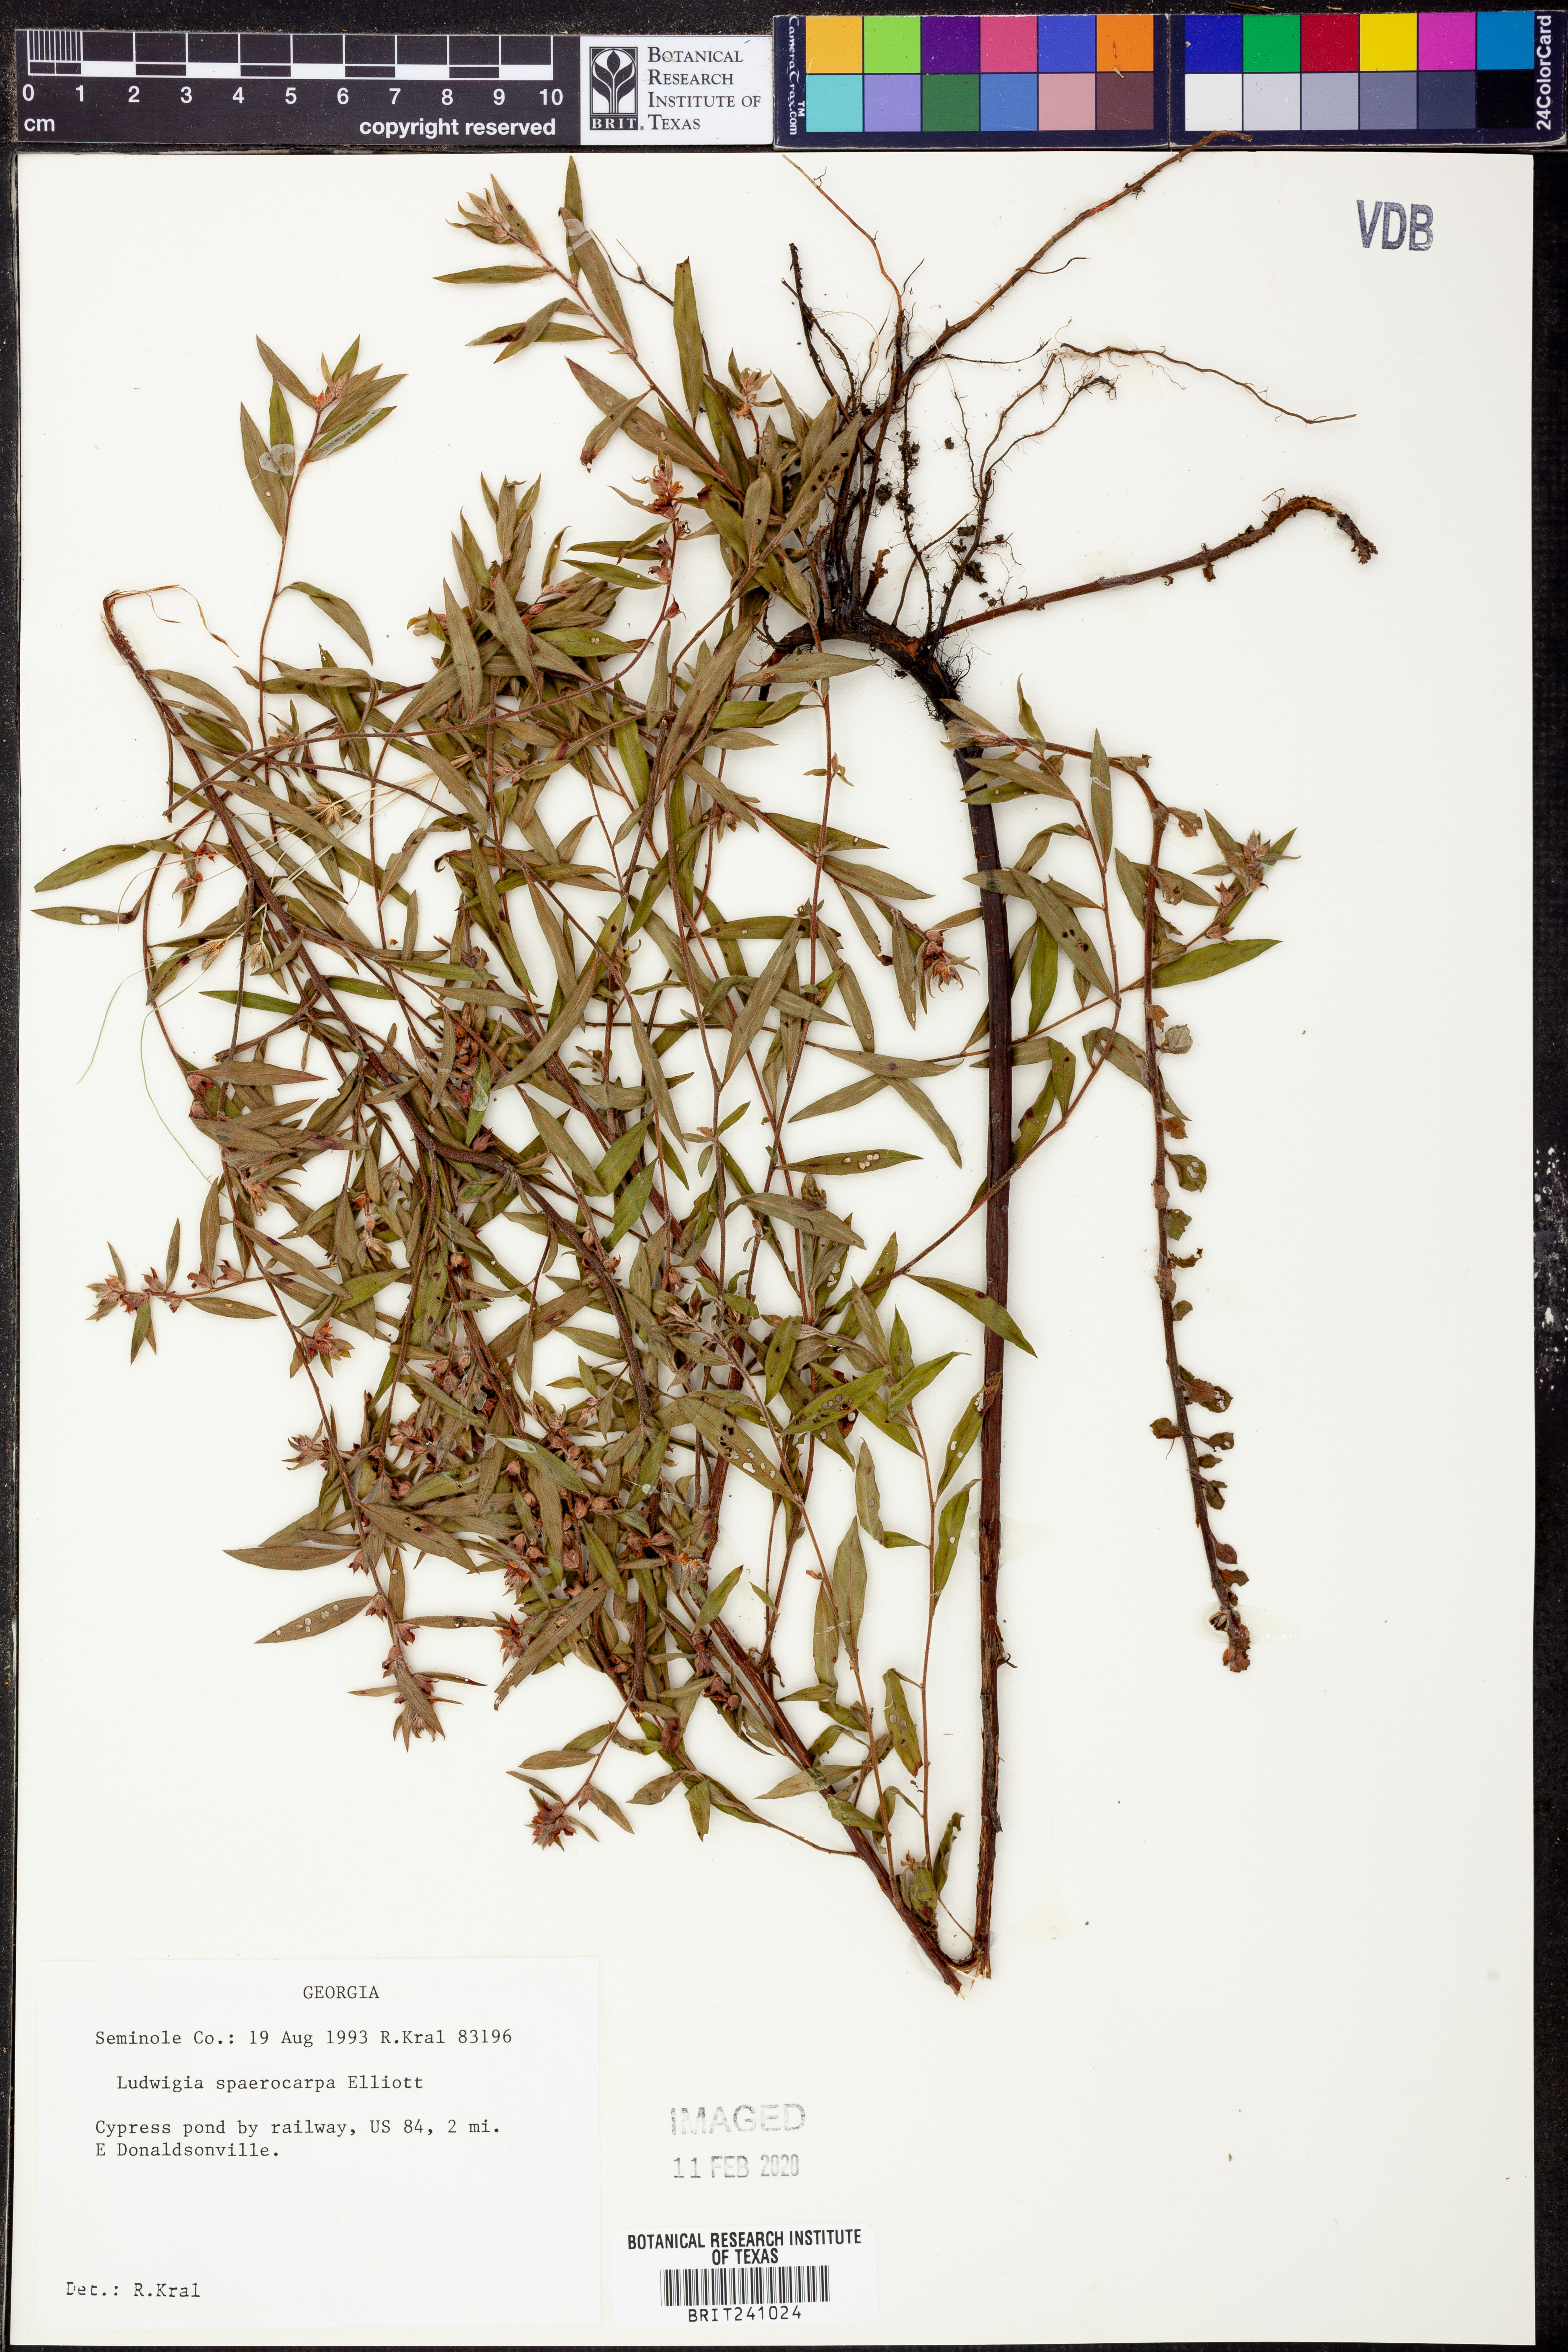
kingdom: Plantae
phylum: Tracheophyta
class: Magnoliopsida
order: Myrtales
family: Onagraceae
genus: Ludwigia
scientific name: Ludwigia sphaerocarpa
